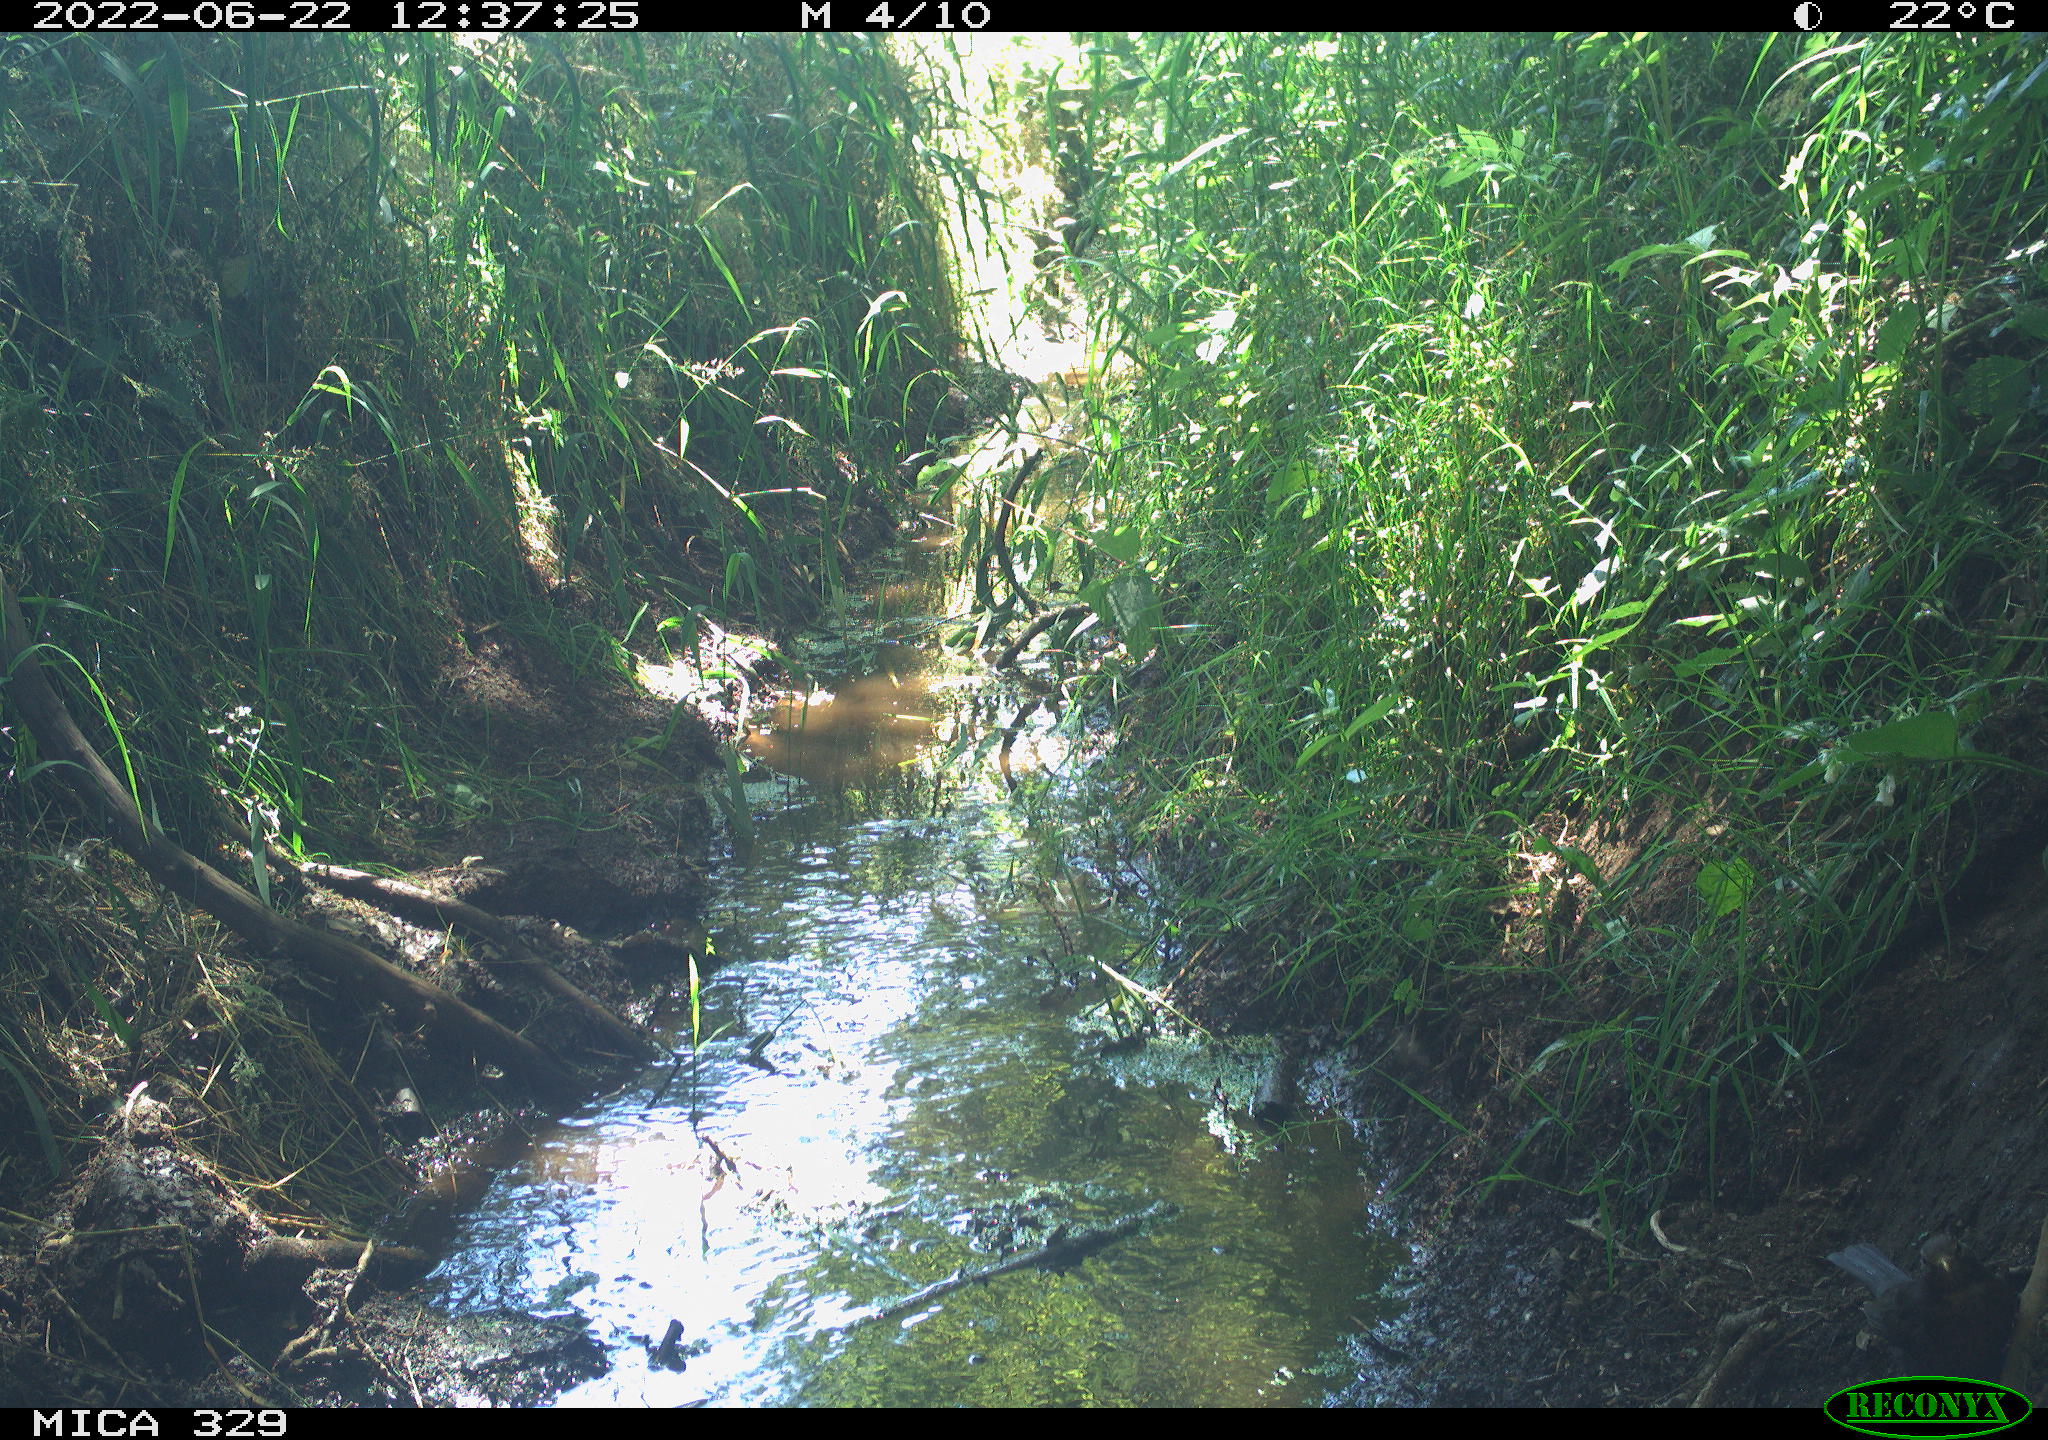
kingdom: Animalia
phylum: Chordata
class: Aves
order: Passeriformes
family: Turdidae
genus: Turdus
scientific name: Turdus merula
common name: Common blackbird
